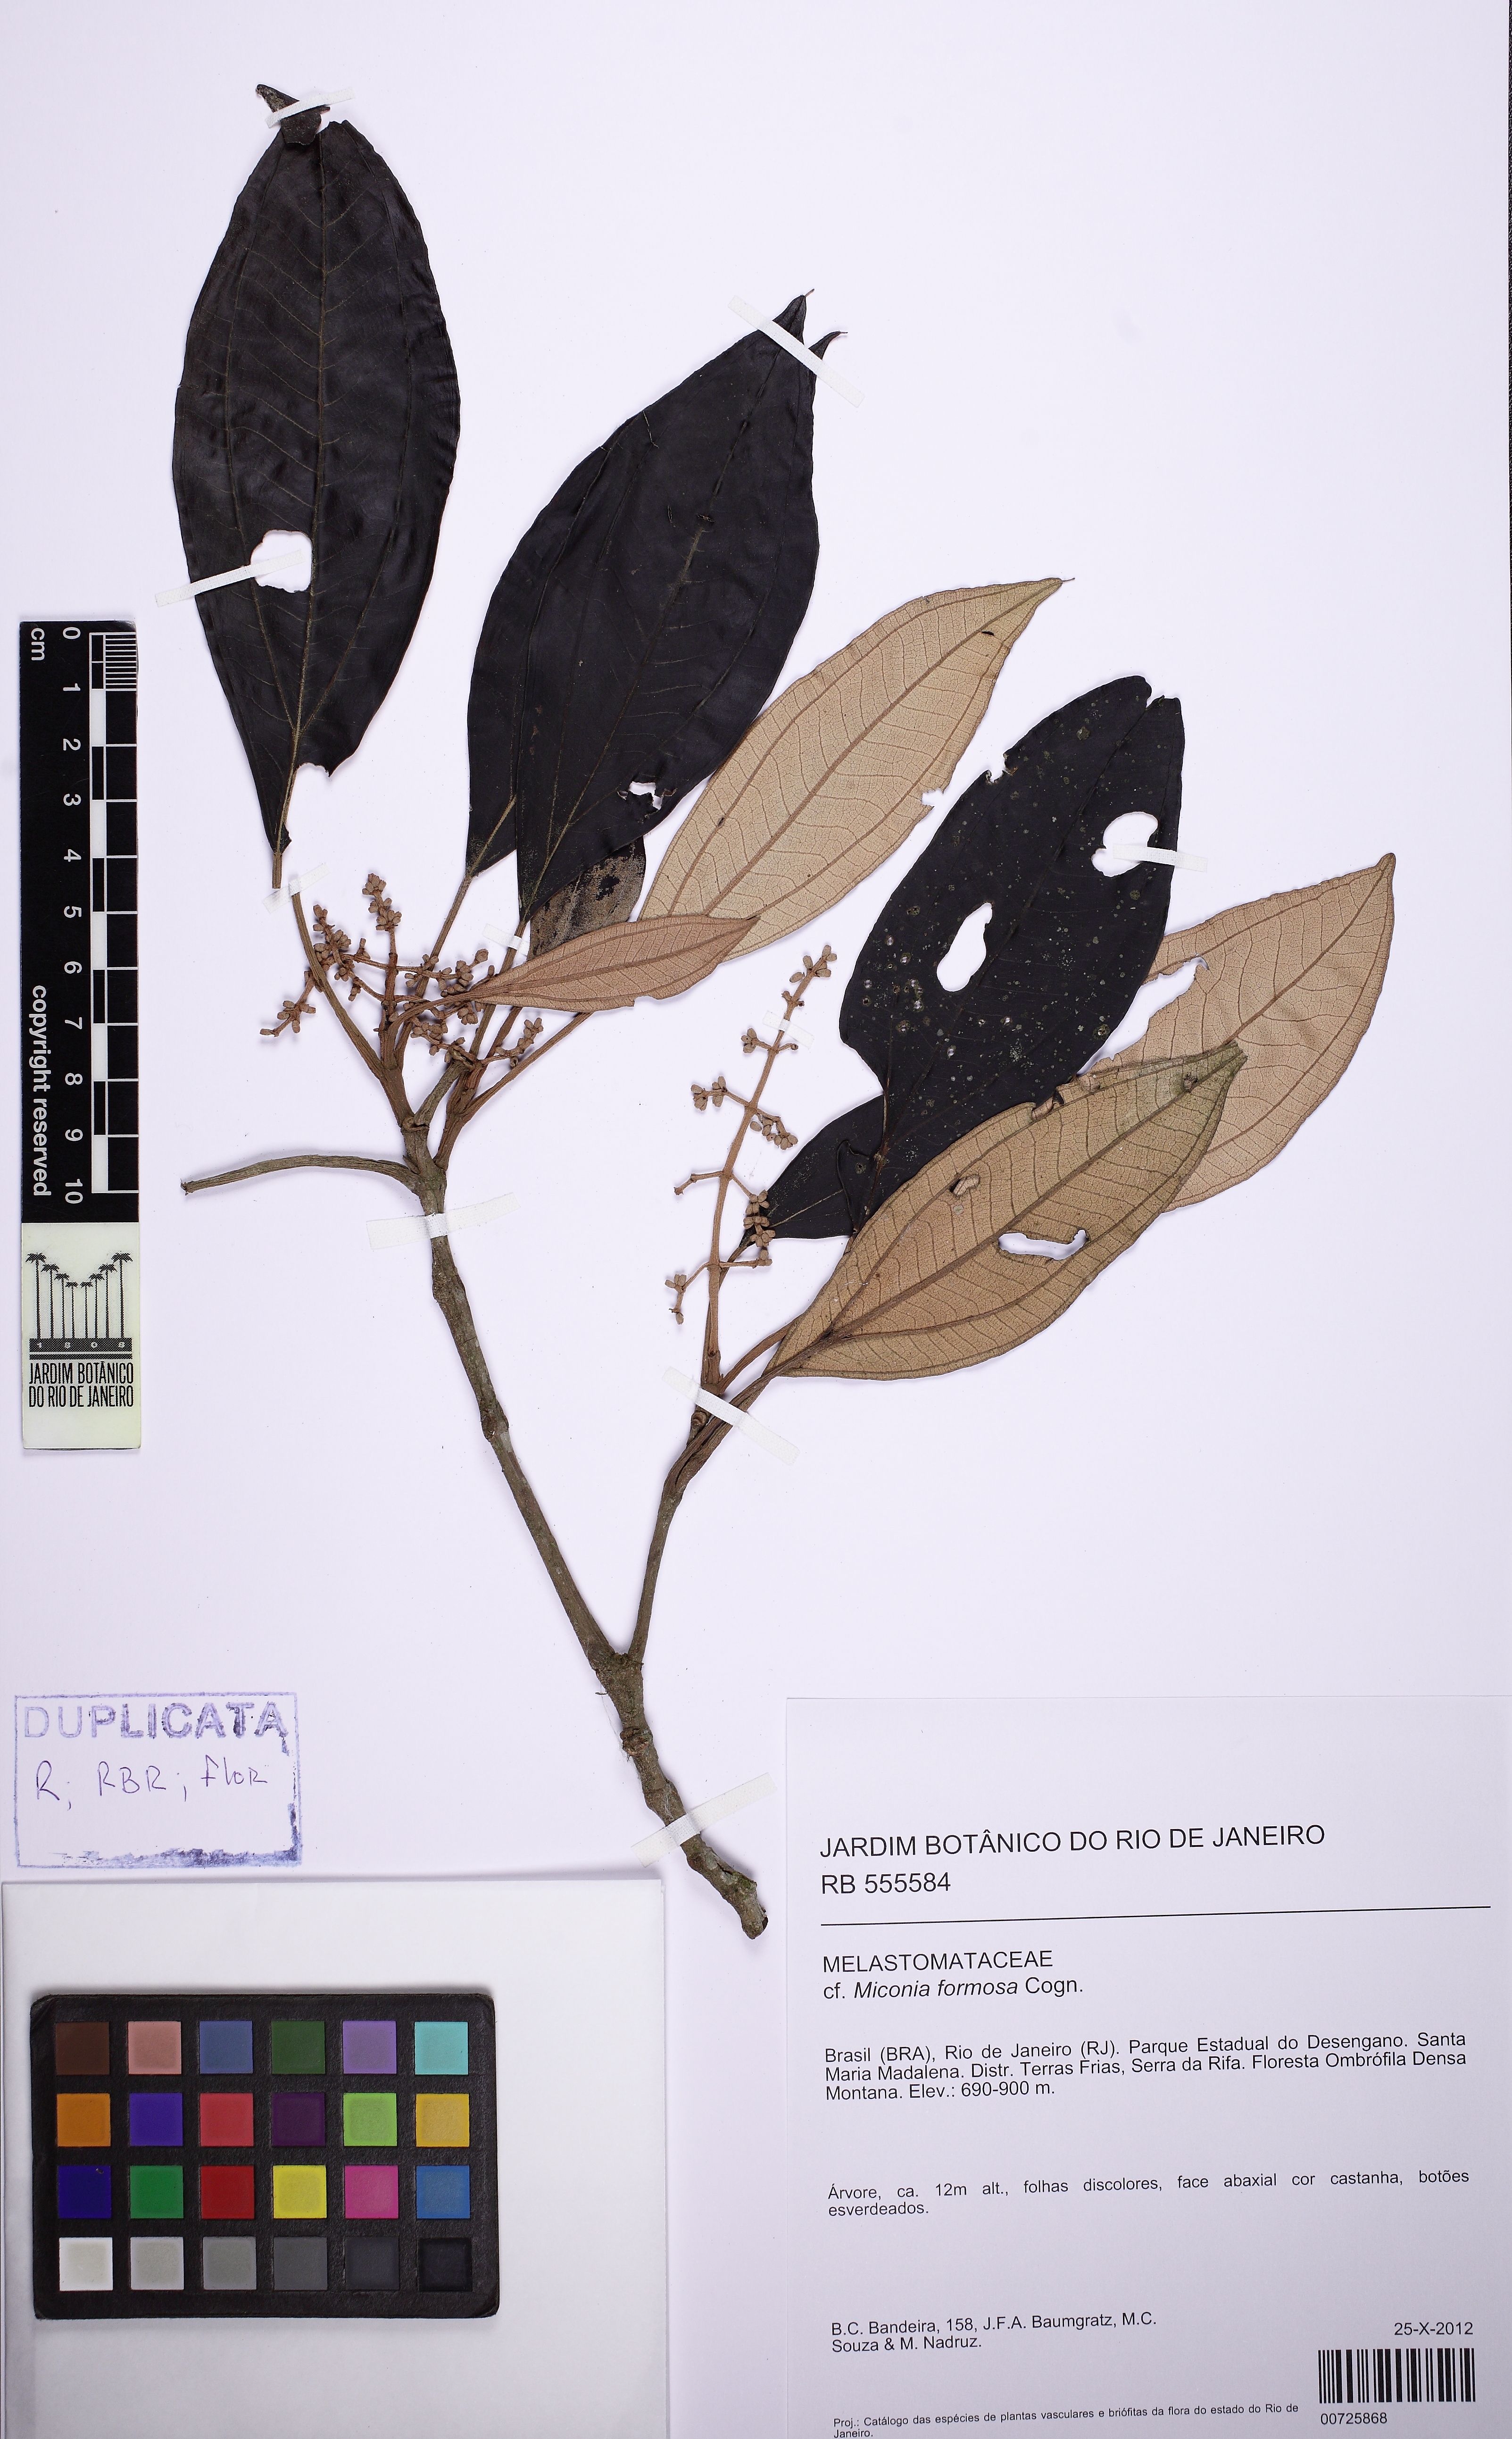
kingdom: Plantae
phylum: Tracheophyta
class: Magnoliopsida
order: Myrtales
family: Melastomataceae
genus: Miconia
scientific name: Miconia formosa
